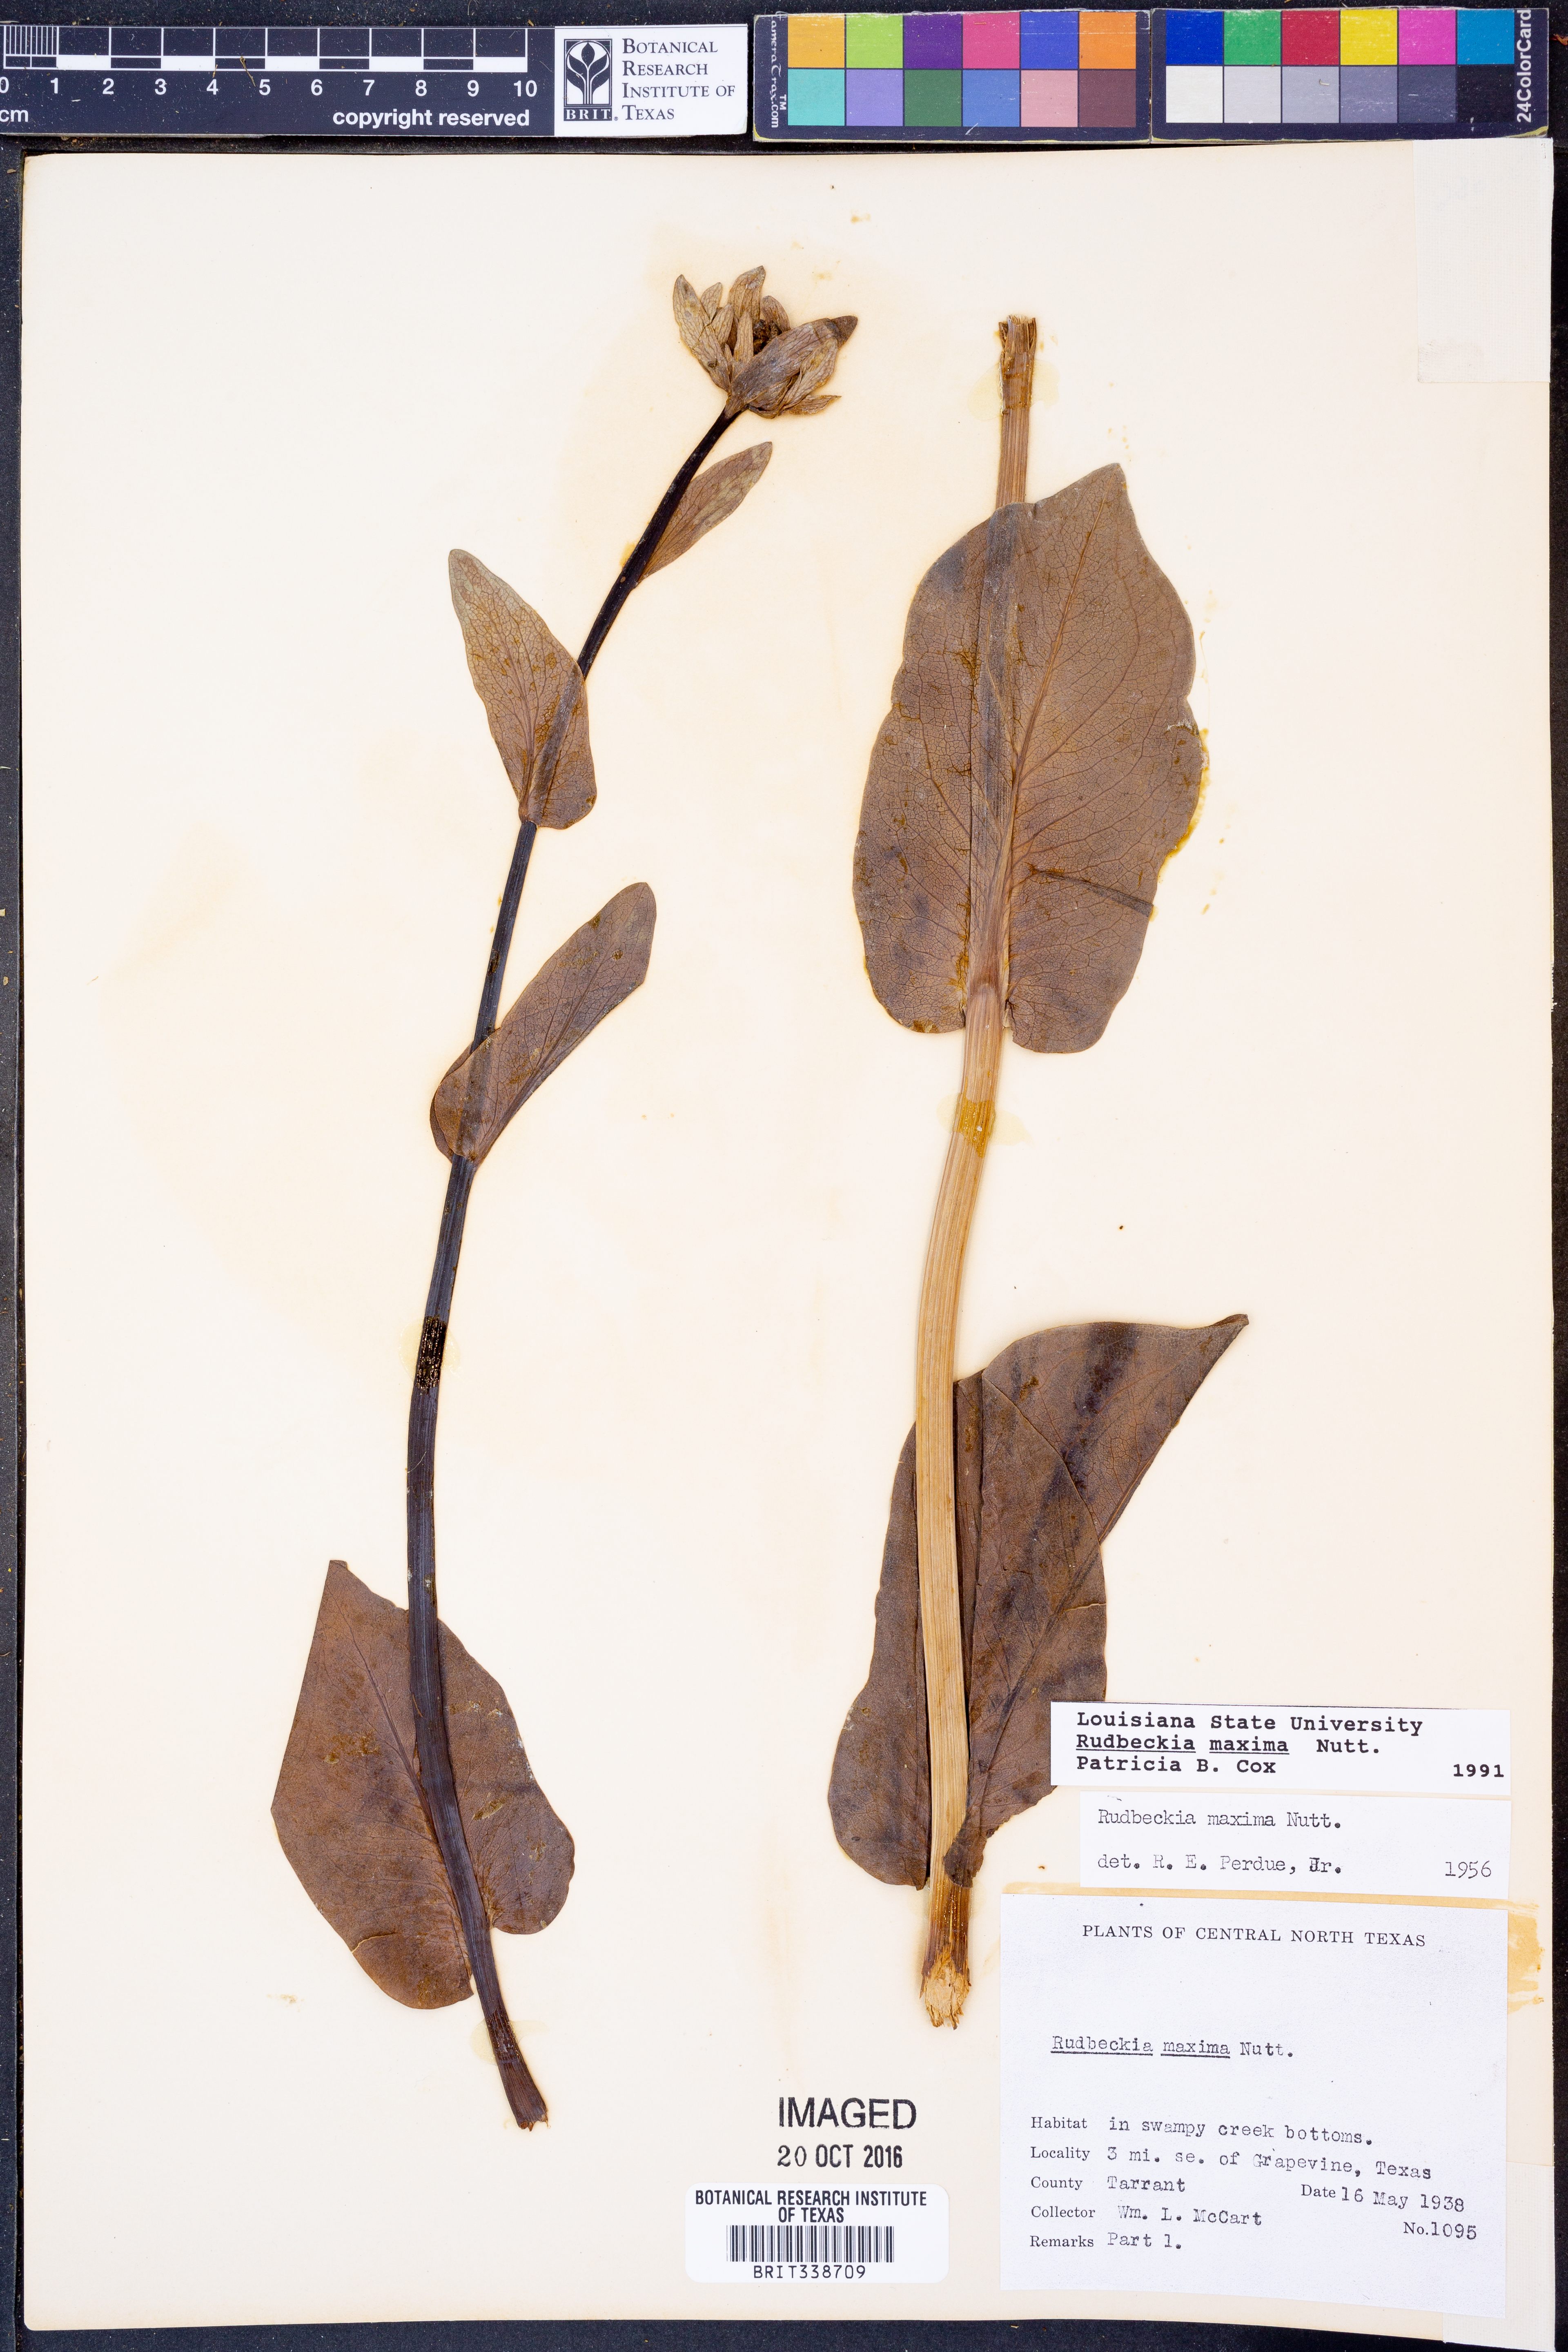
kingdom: Plantae
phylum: Tracheophyta
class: Magnoliopsida
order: Asterales
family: Asteraceae
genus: Rudbeckia
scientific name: Rudbeckia maxima
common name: Cabbage coneflower
